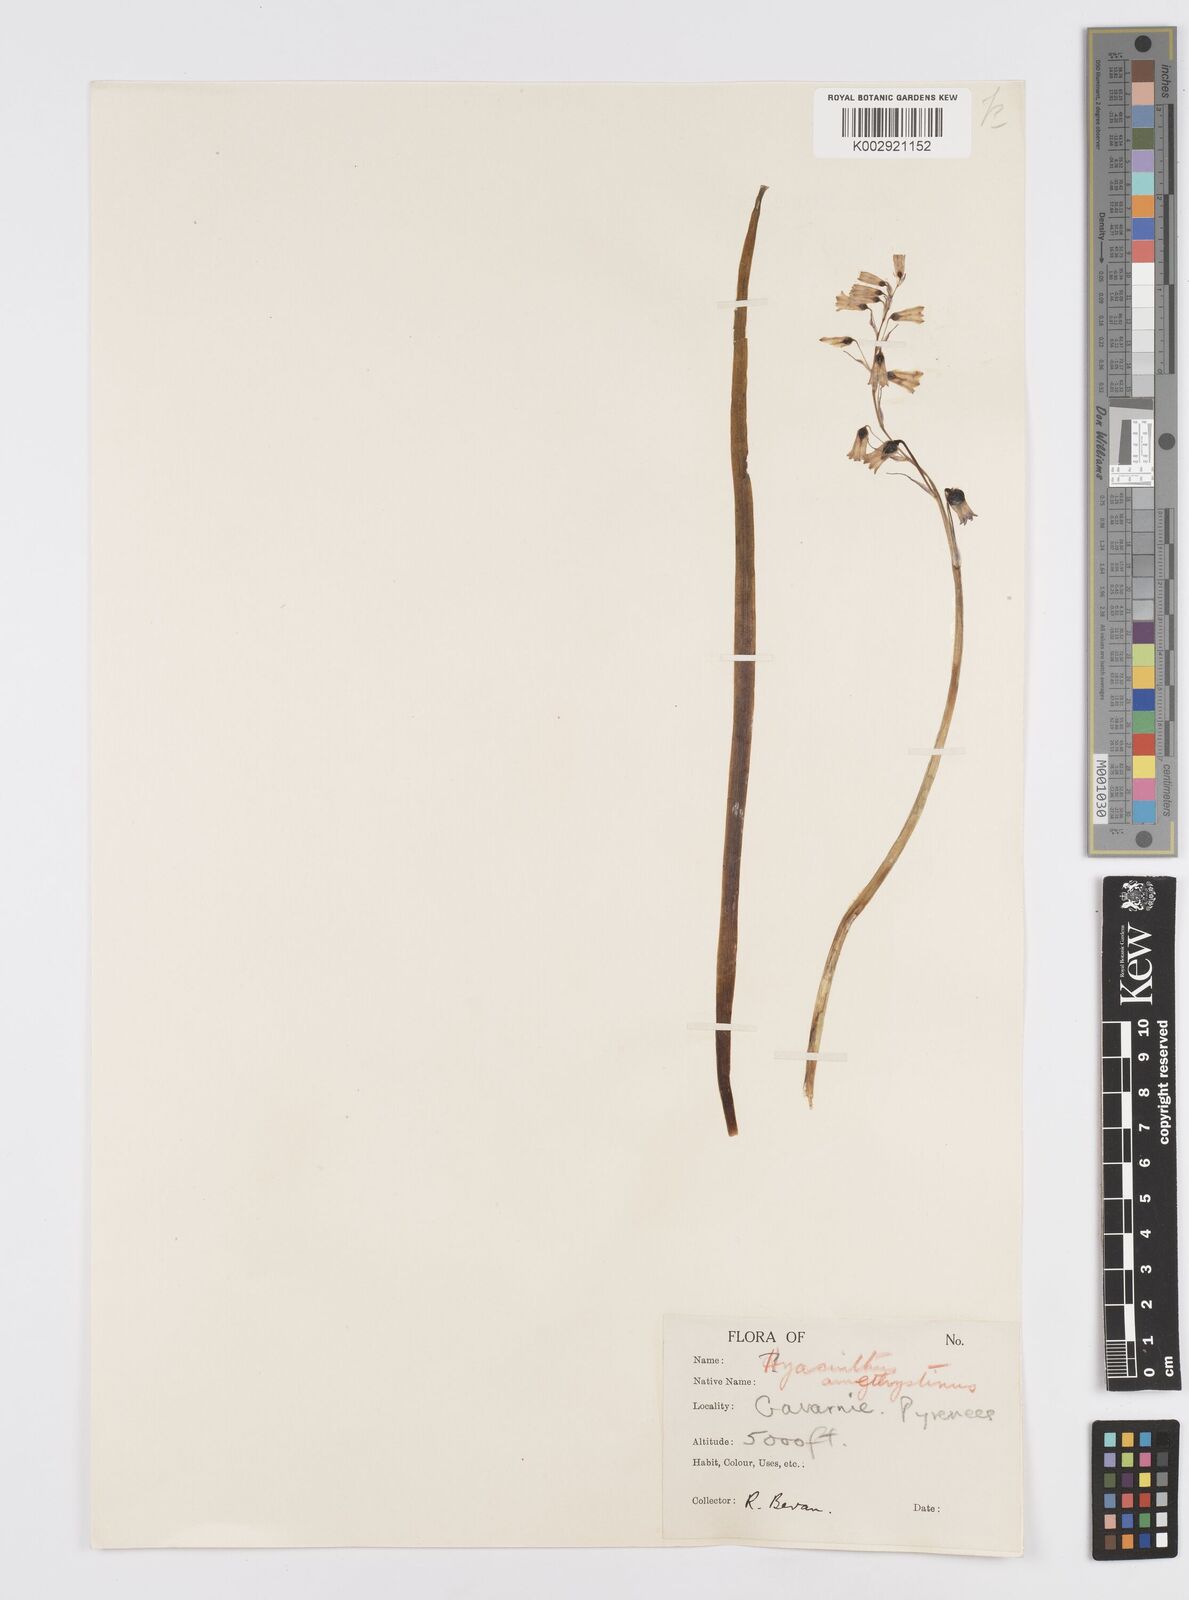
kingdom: Plantae
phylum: Tracheophyta
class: Liliopsida
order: Asparagales
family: Asparagaceae
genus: Brimeura
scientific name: Brimeura amethystina
